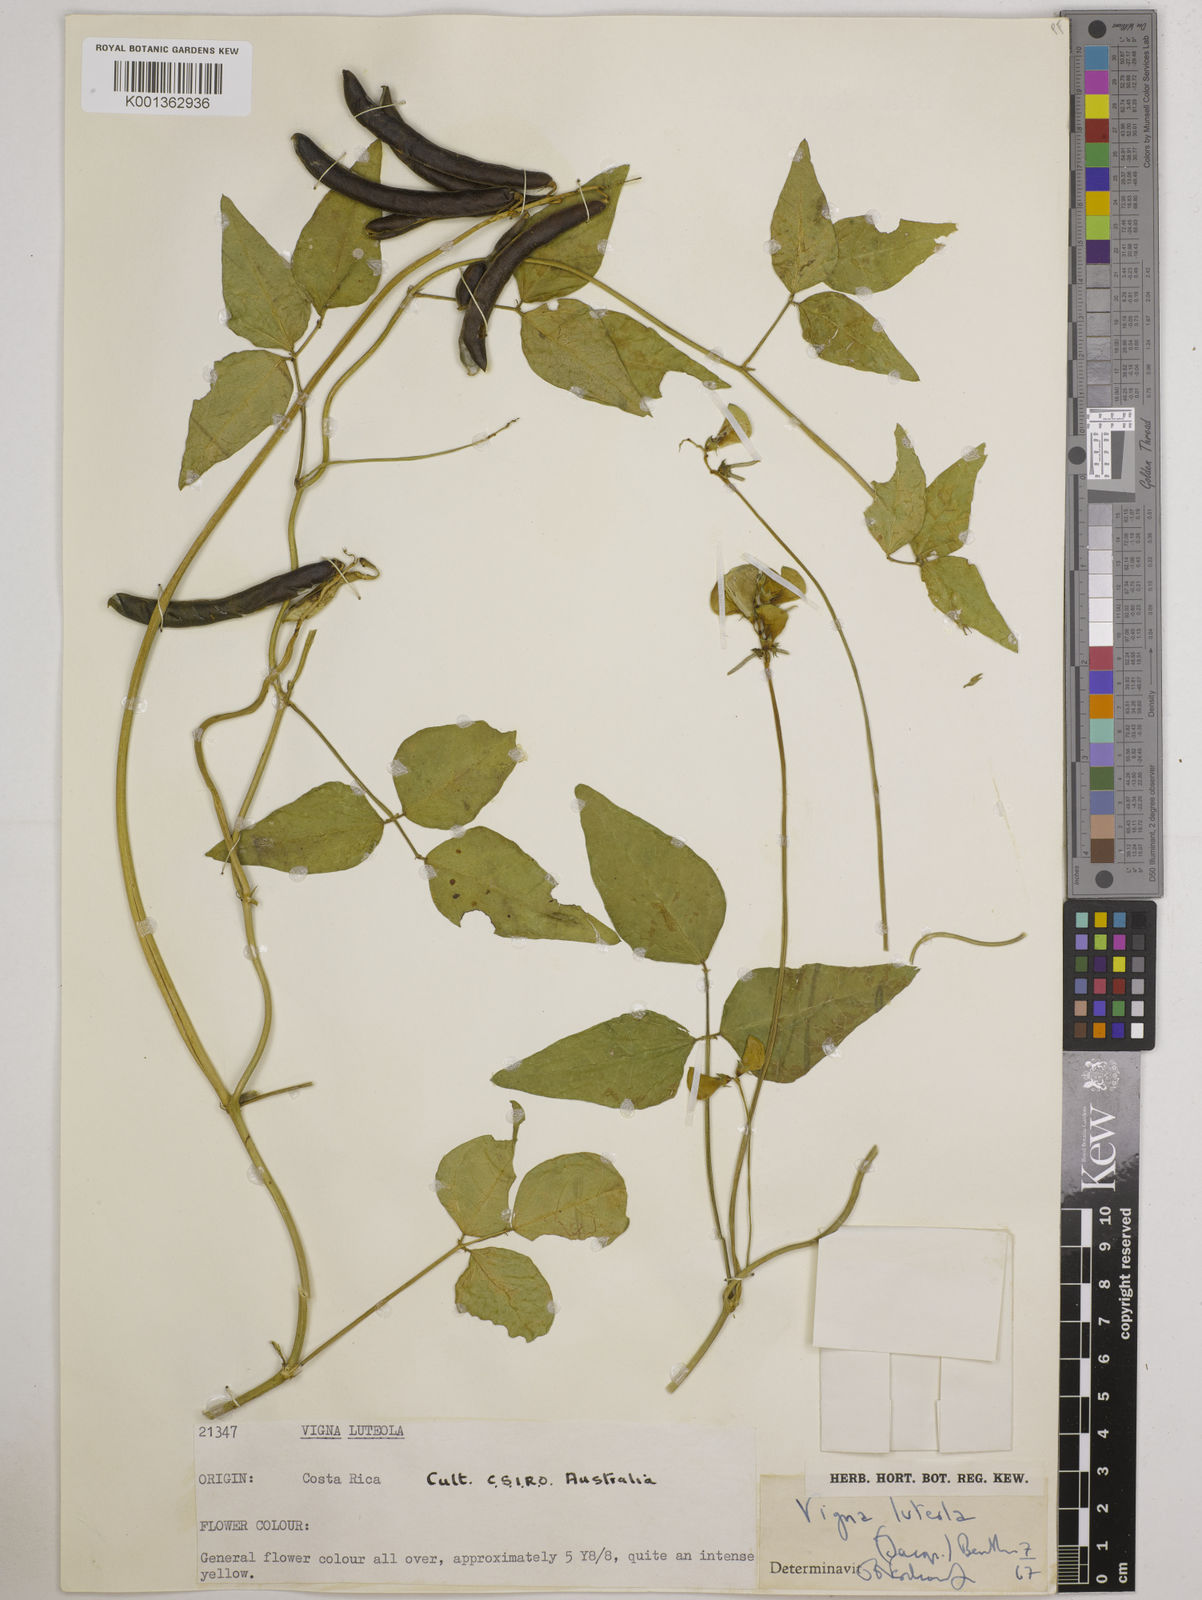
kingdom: Plantae
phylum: Tracheophyta
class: Magnoliopsida
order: Fabales
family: Fabaceae
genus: Vigna
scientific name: Vigna luteola
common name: Hairypod cowpea
